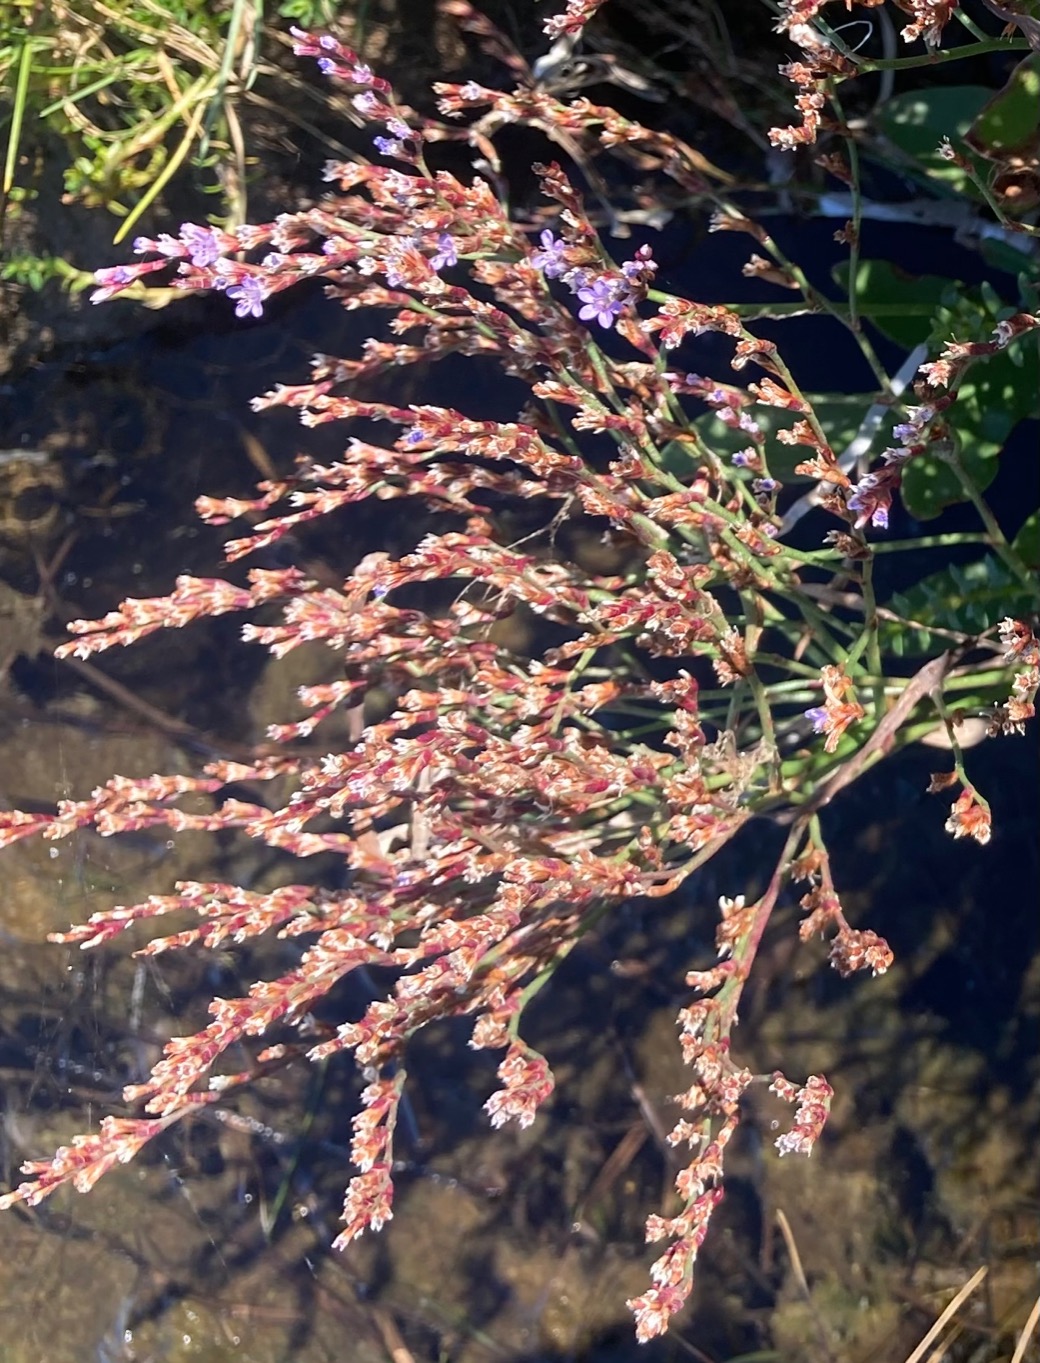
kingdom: Plantae
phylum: Tracheophyta
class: Magnoliopsida
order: Caryophyllales
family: Plumbaginaceae
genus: Limonium
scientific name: Limonium humile
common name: Lav hindebæger
